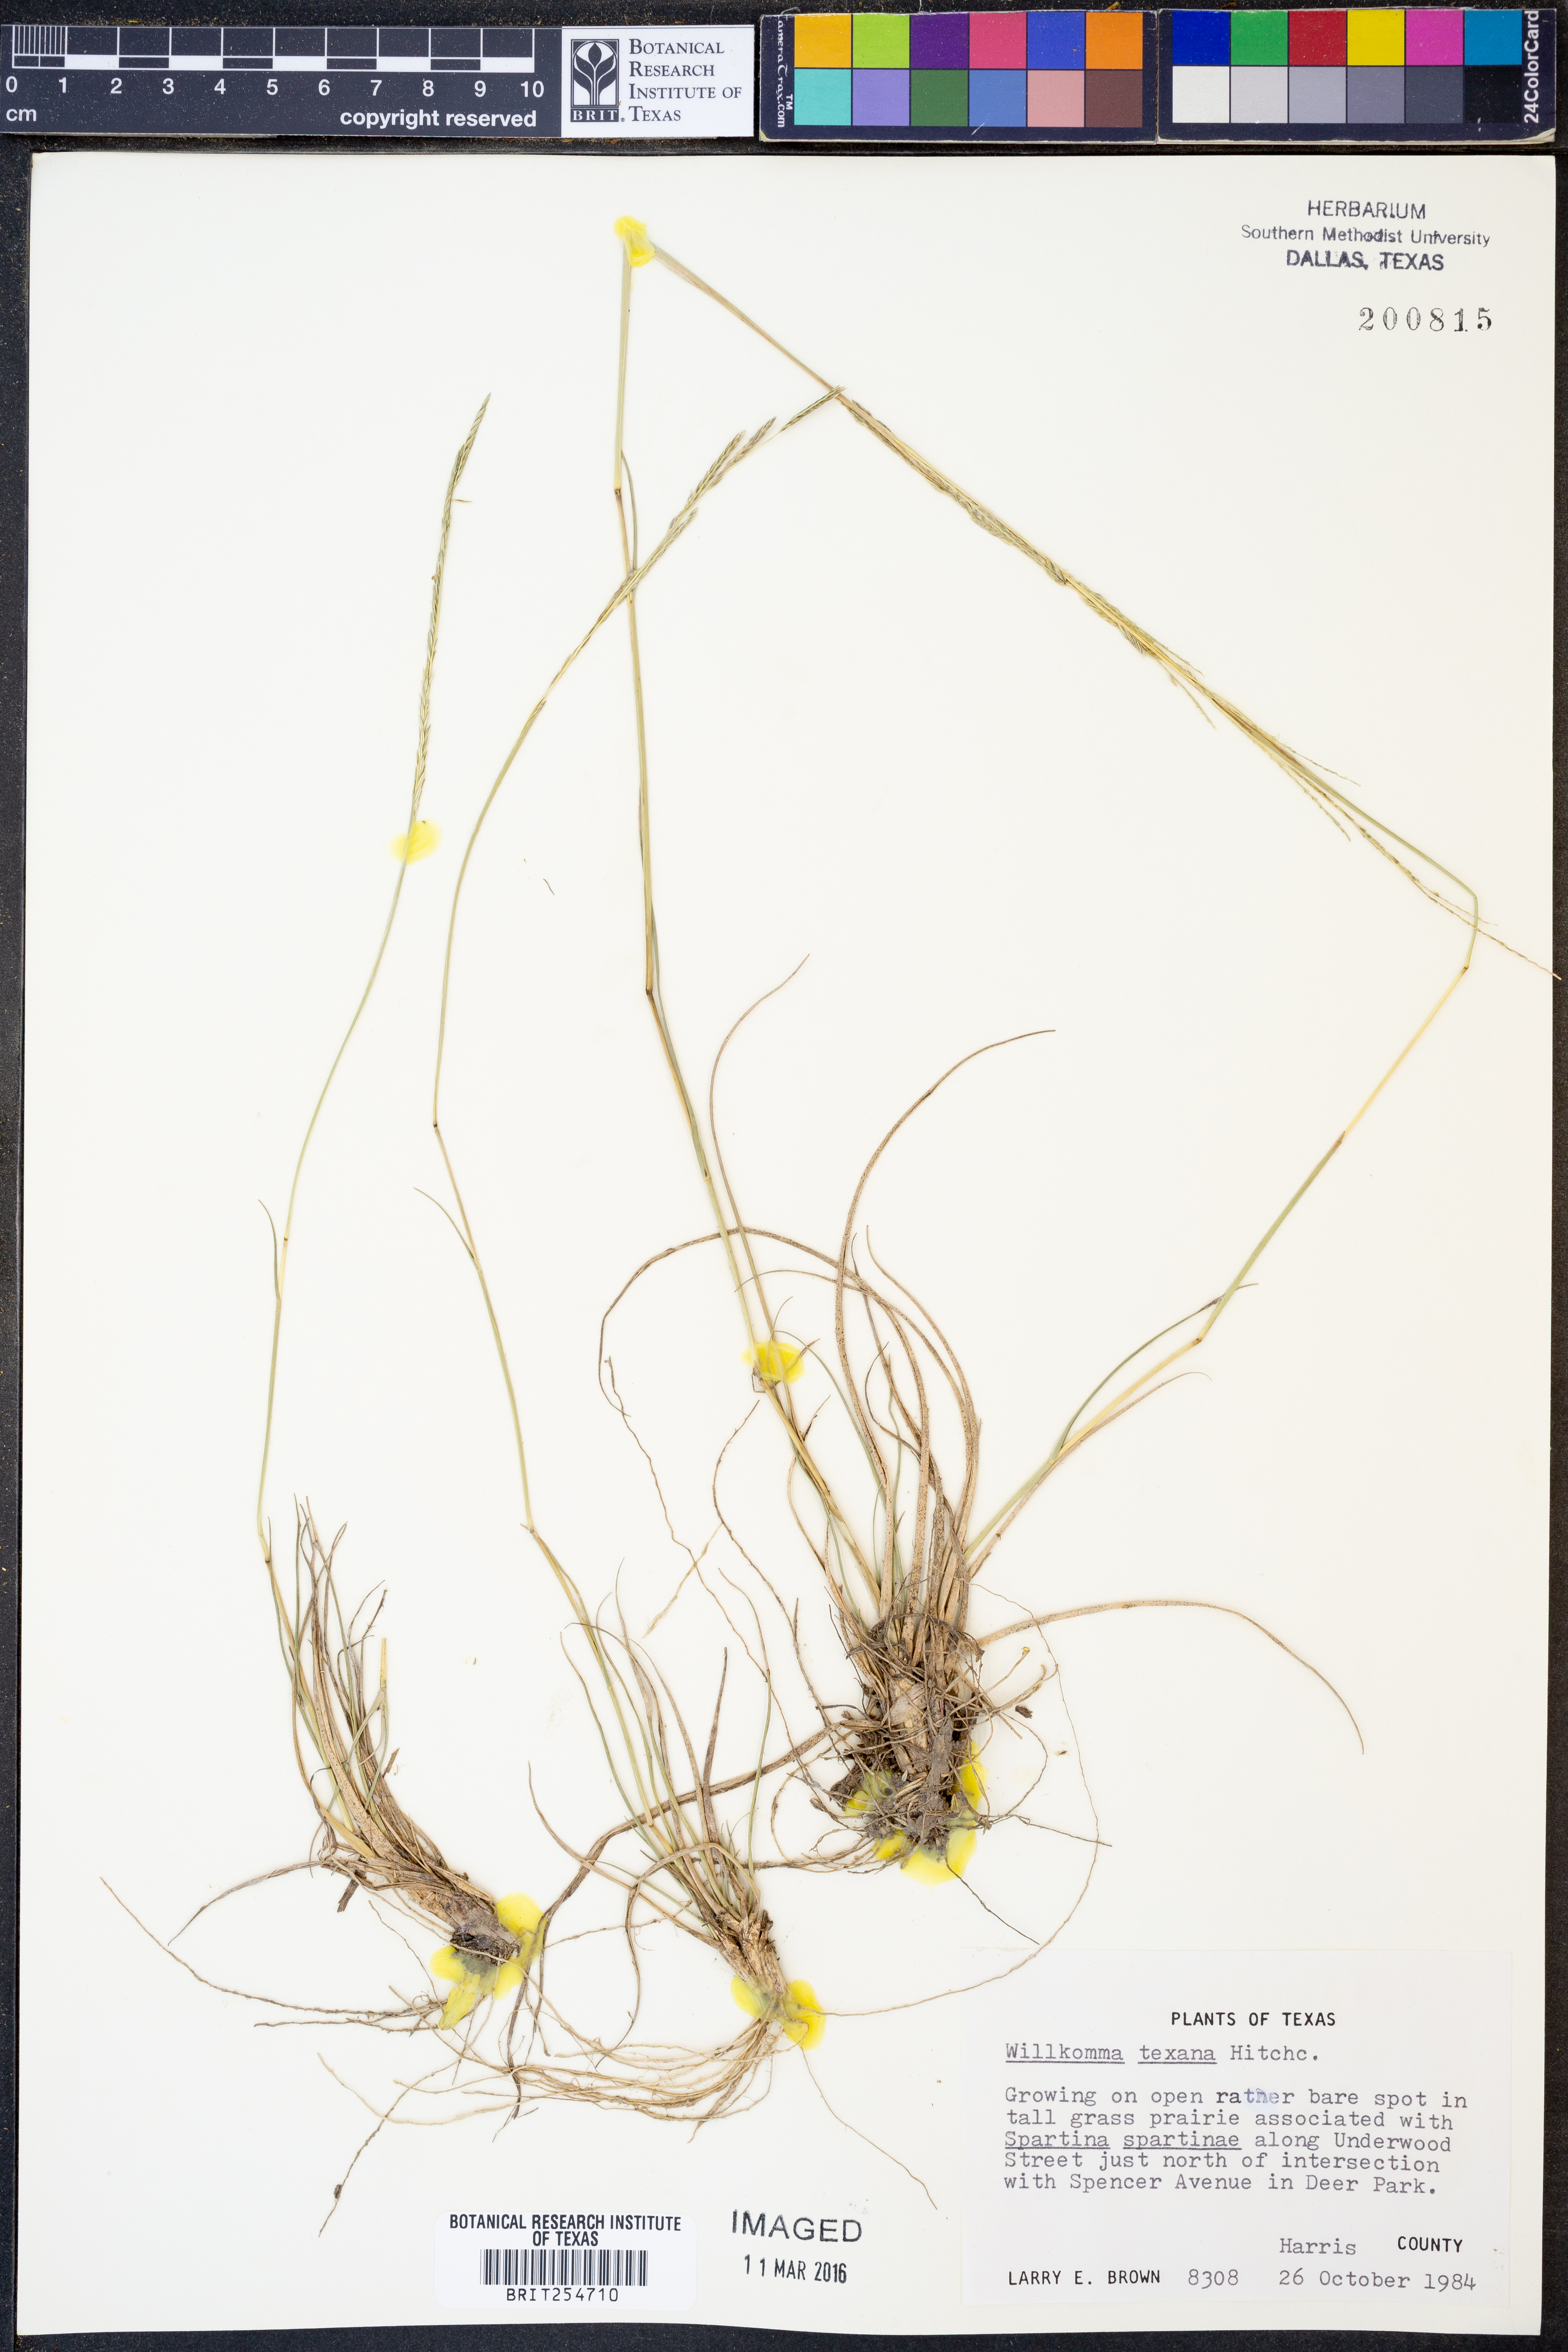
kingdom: Plantae
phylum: Tracheophyta
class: Liliopsida
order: Poales
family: Poaceae
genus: Willkommia
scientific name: Willkommia texana
